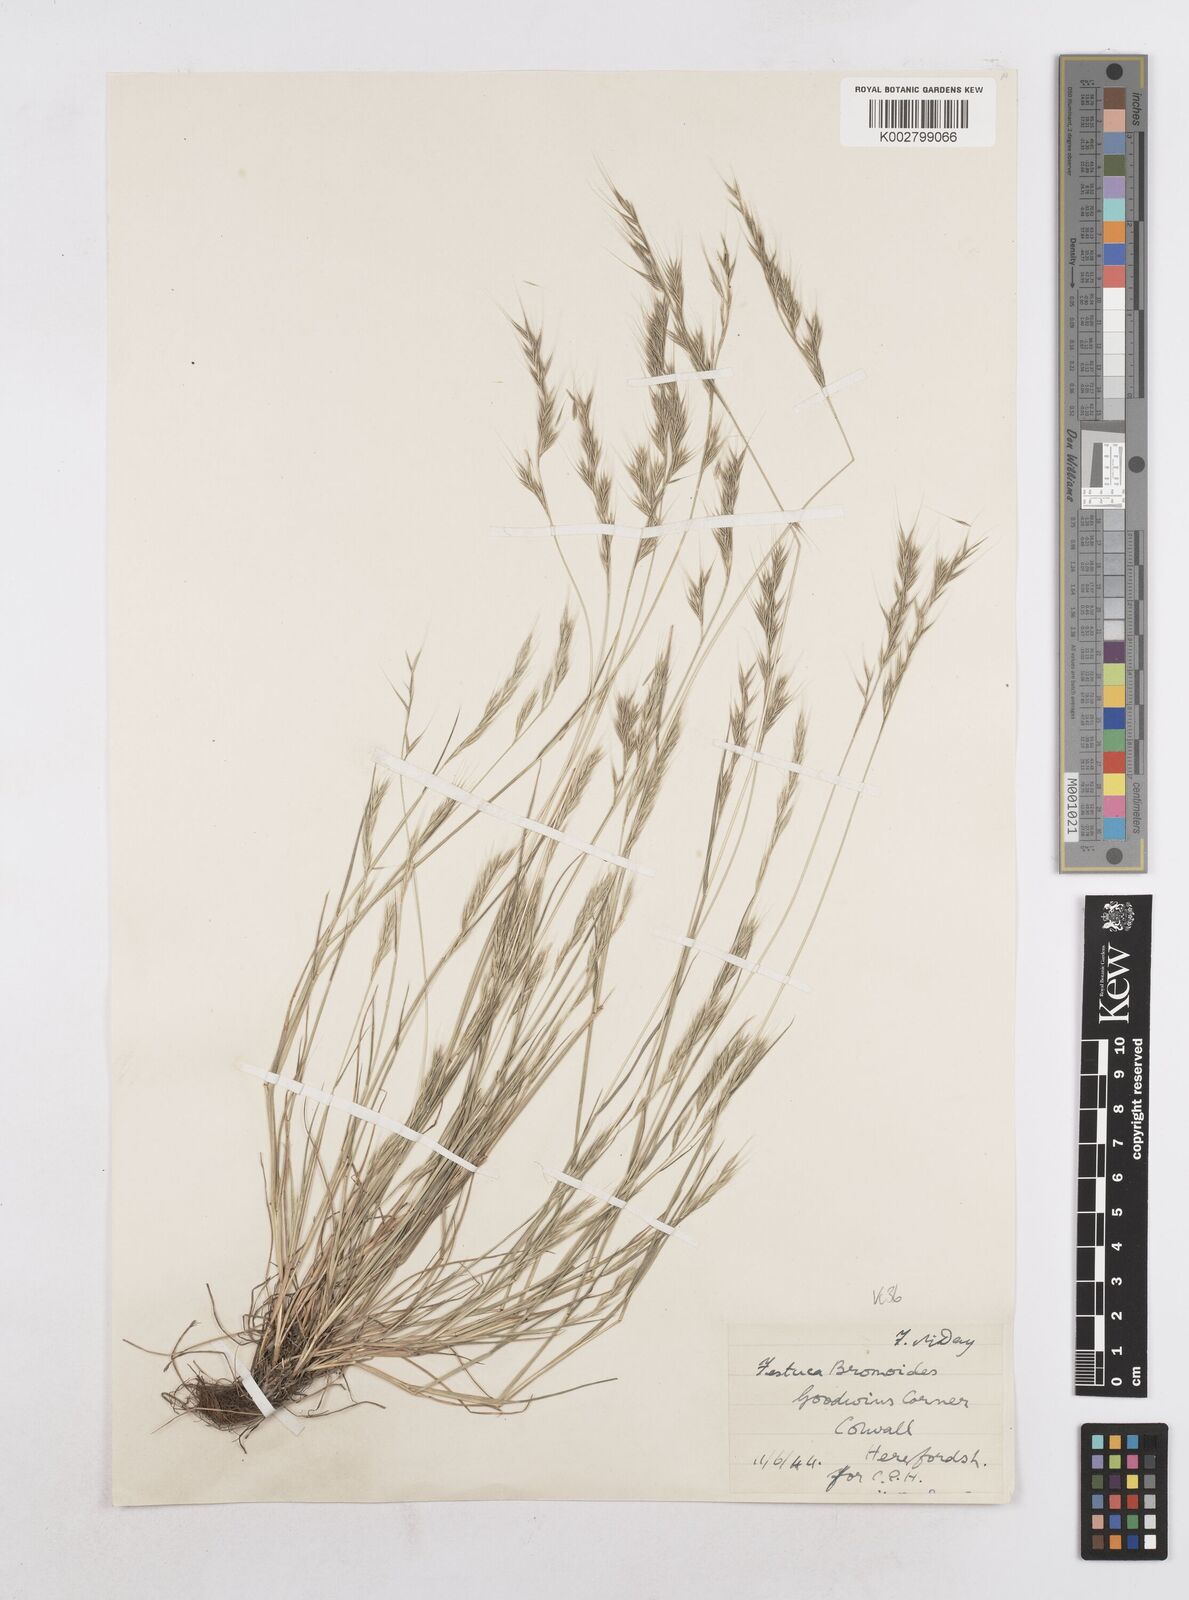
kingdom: Plantae
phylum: Tracheophyta
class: Liliopsida
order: Poales
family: Poaceae
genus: Festuca
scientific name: Festuca bromoides
